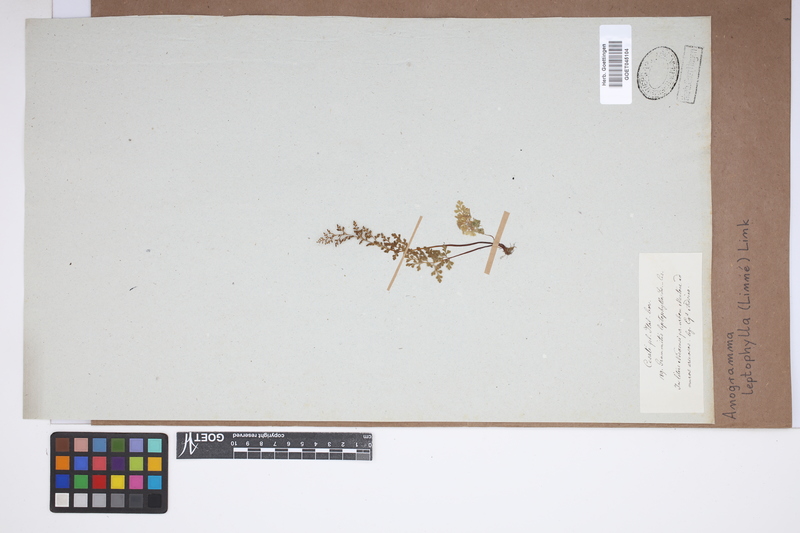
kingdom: Plantae
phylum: Tracheophyta
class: Polypodiopsida
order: Polypodiales
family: Pteridaceae
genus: Anogramma
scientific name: Anogramma leptophylla
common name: Jersey fern
